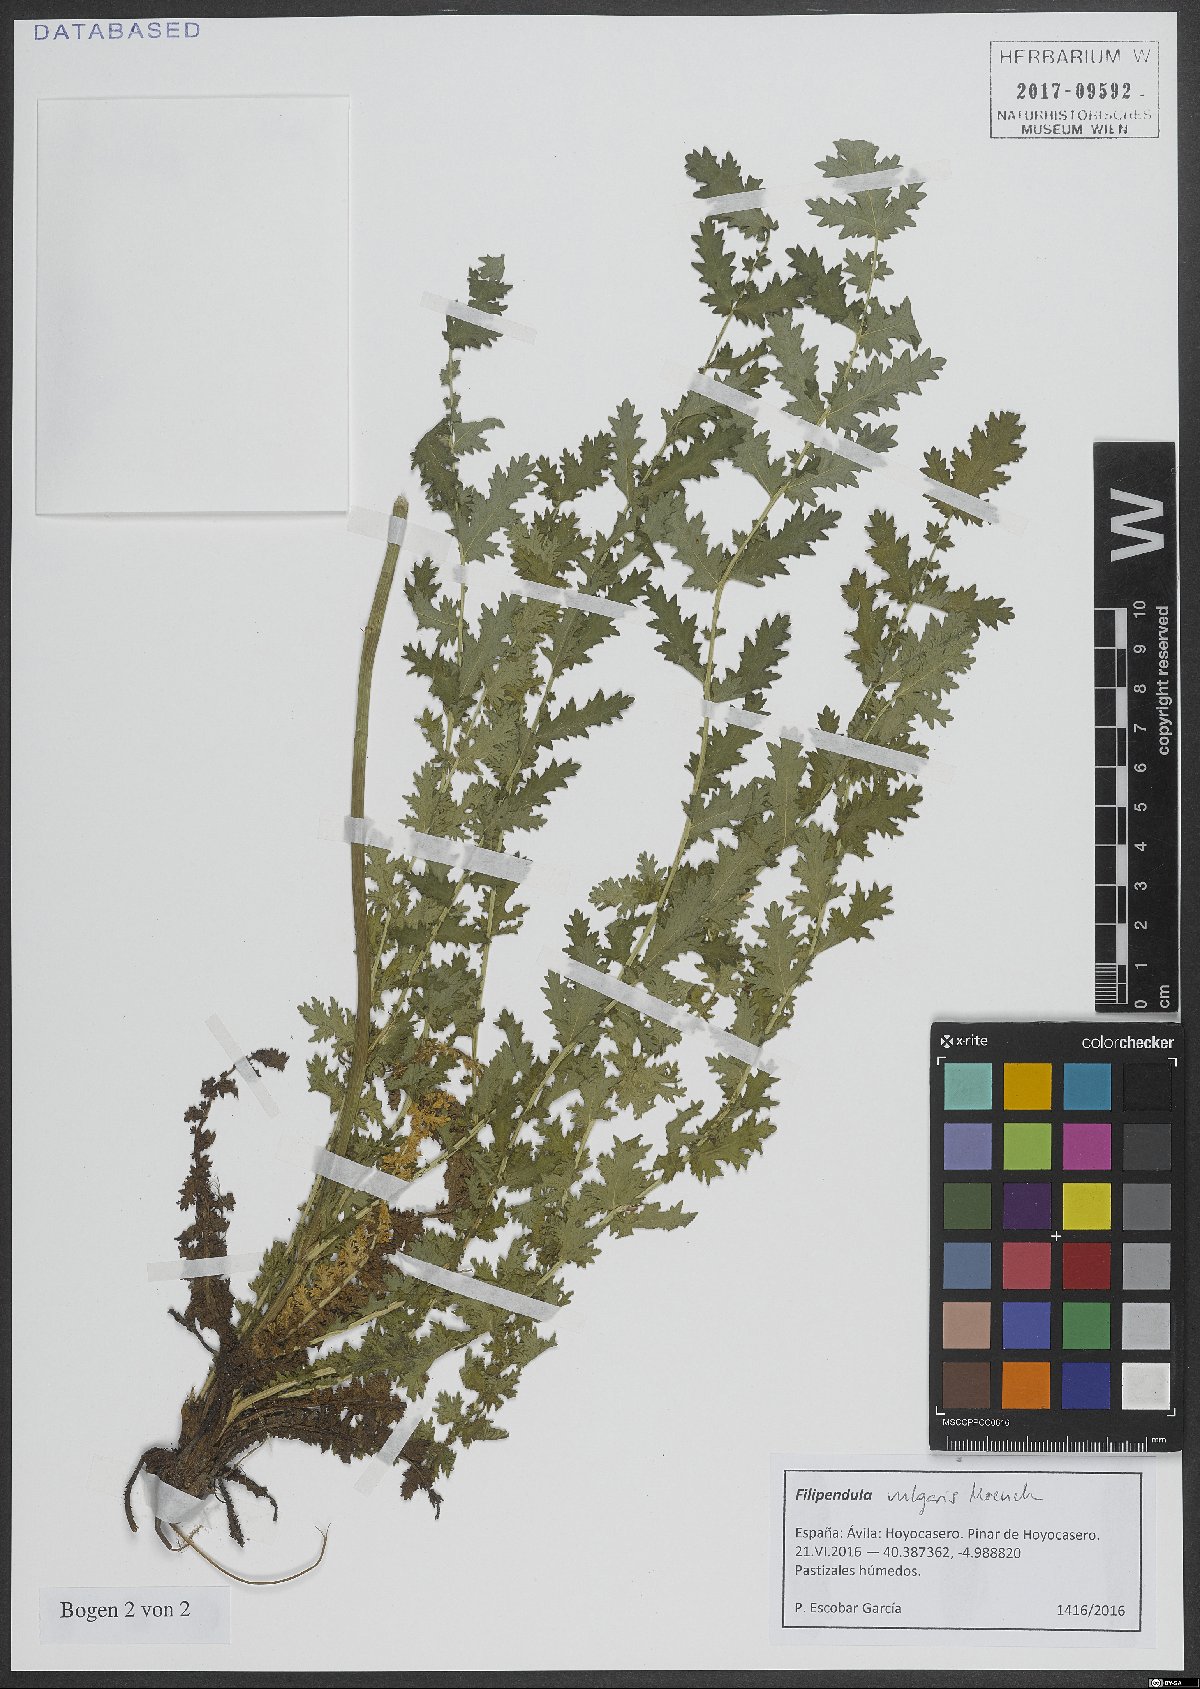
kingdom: Plantae
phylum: Tracheophyta
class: Magnoliopsida
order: Rosales
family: Rosaceae
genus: Filipendula
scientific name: Filipendula vulgaris
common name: Dropwort
